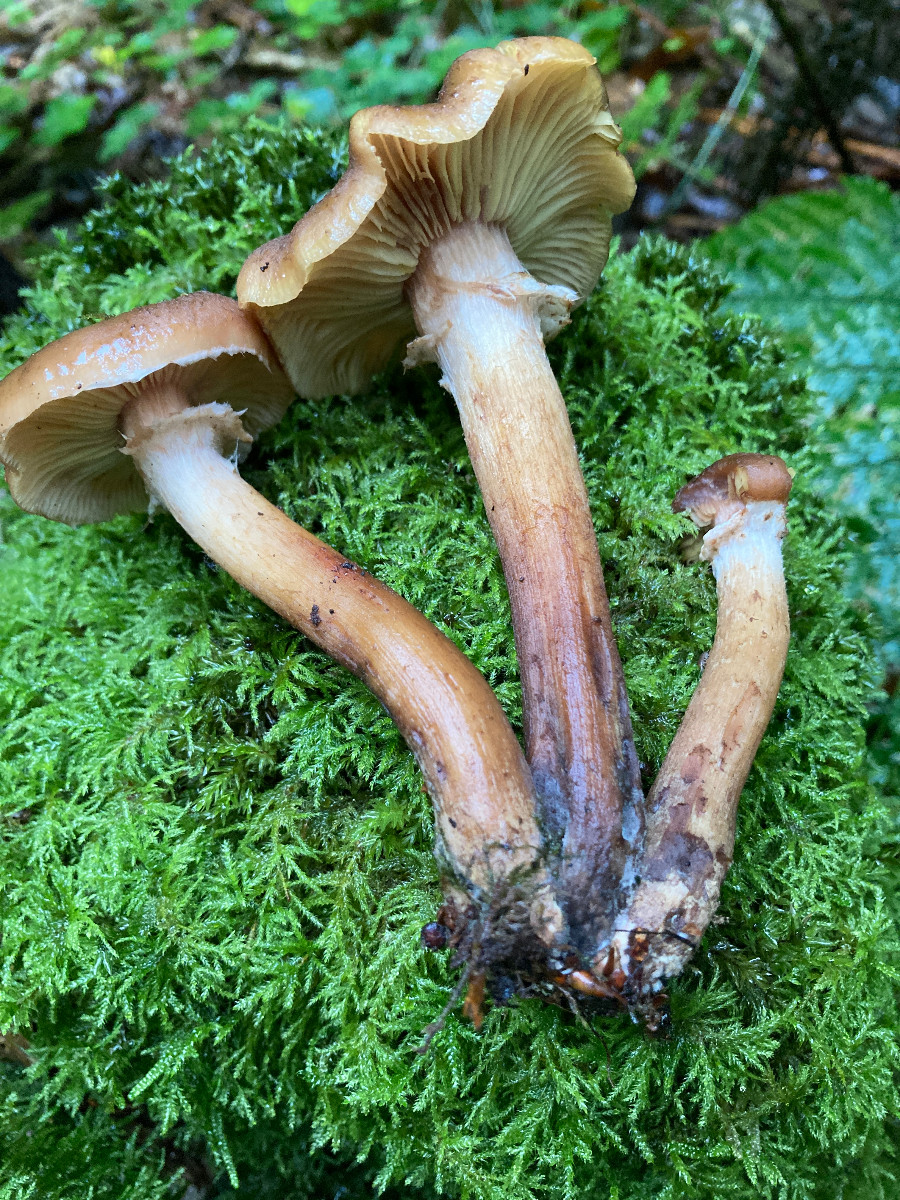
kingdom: Fungi
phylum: Basidiomycota
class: Agaricomycetes
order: Agaricales
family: Physalacriaceae
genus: Armillaria
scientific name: Armillaria lutea
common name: køllestokket honningsvamp
